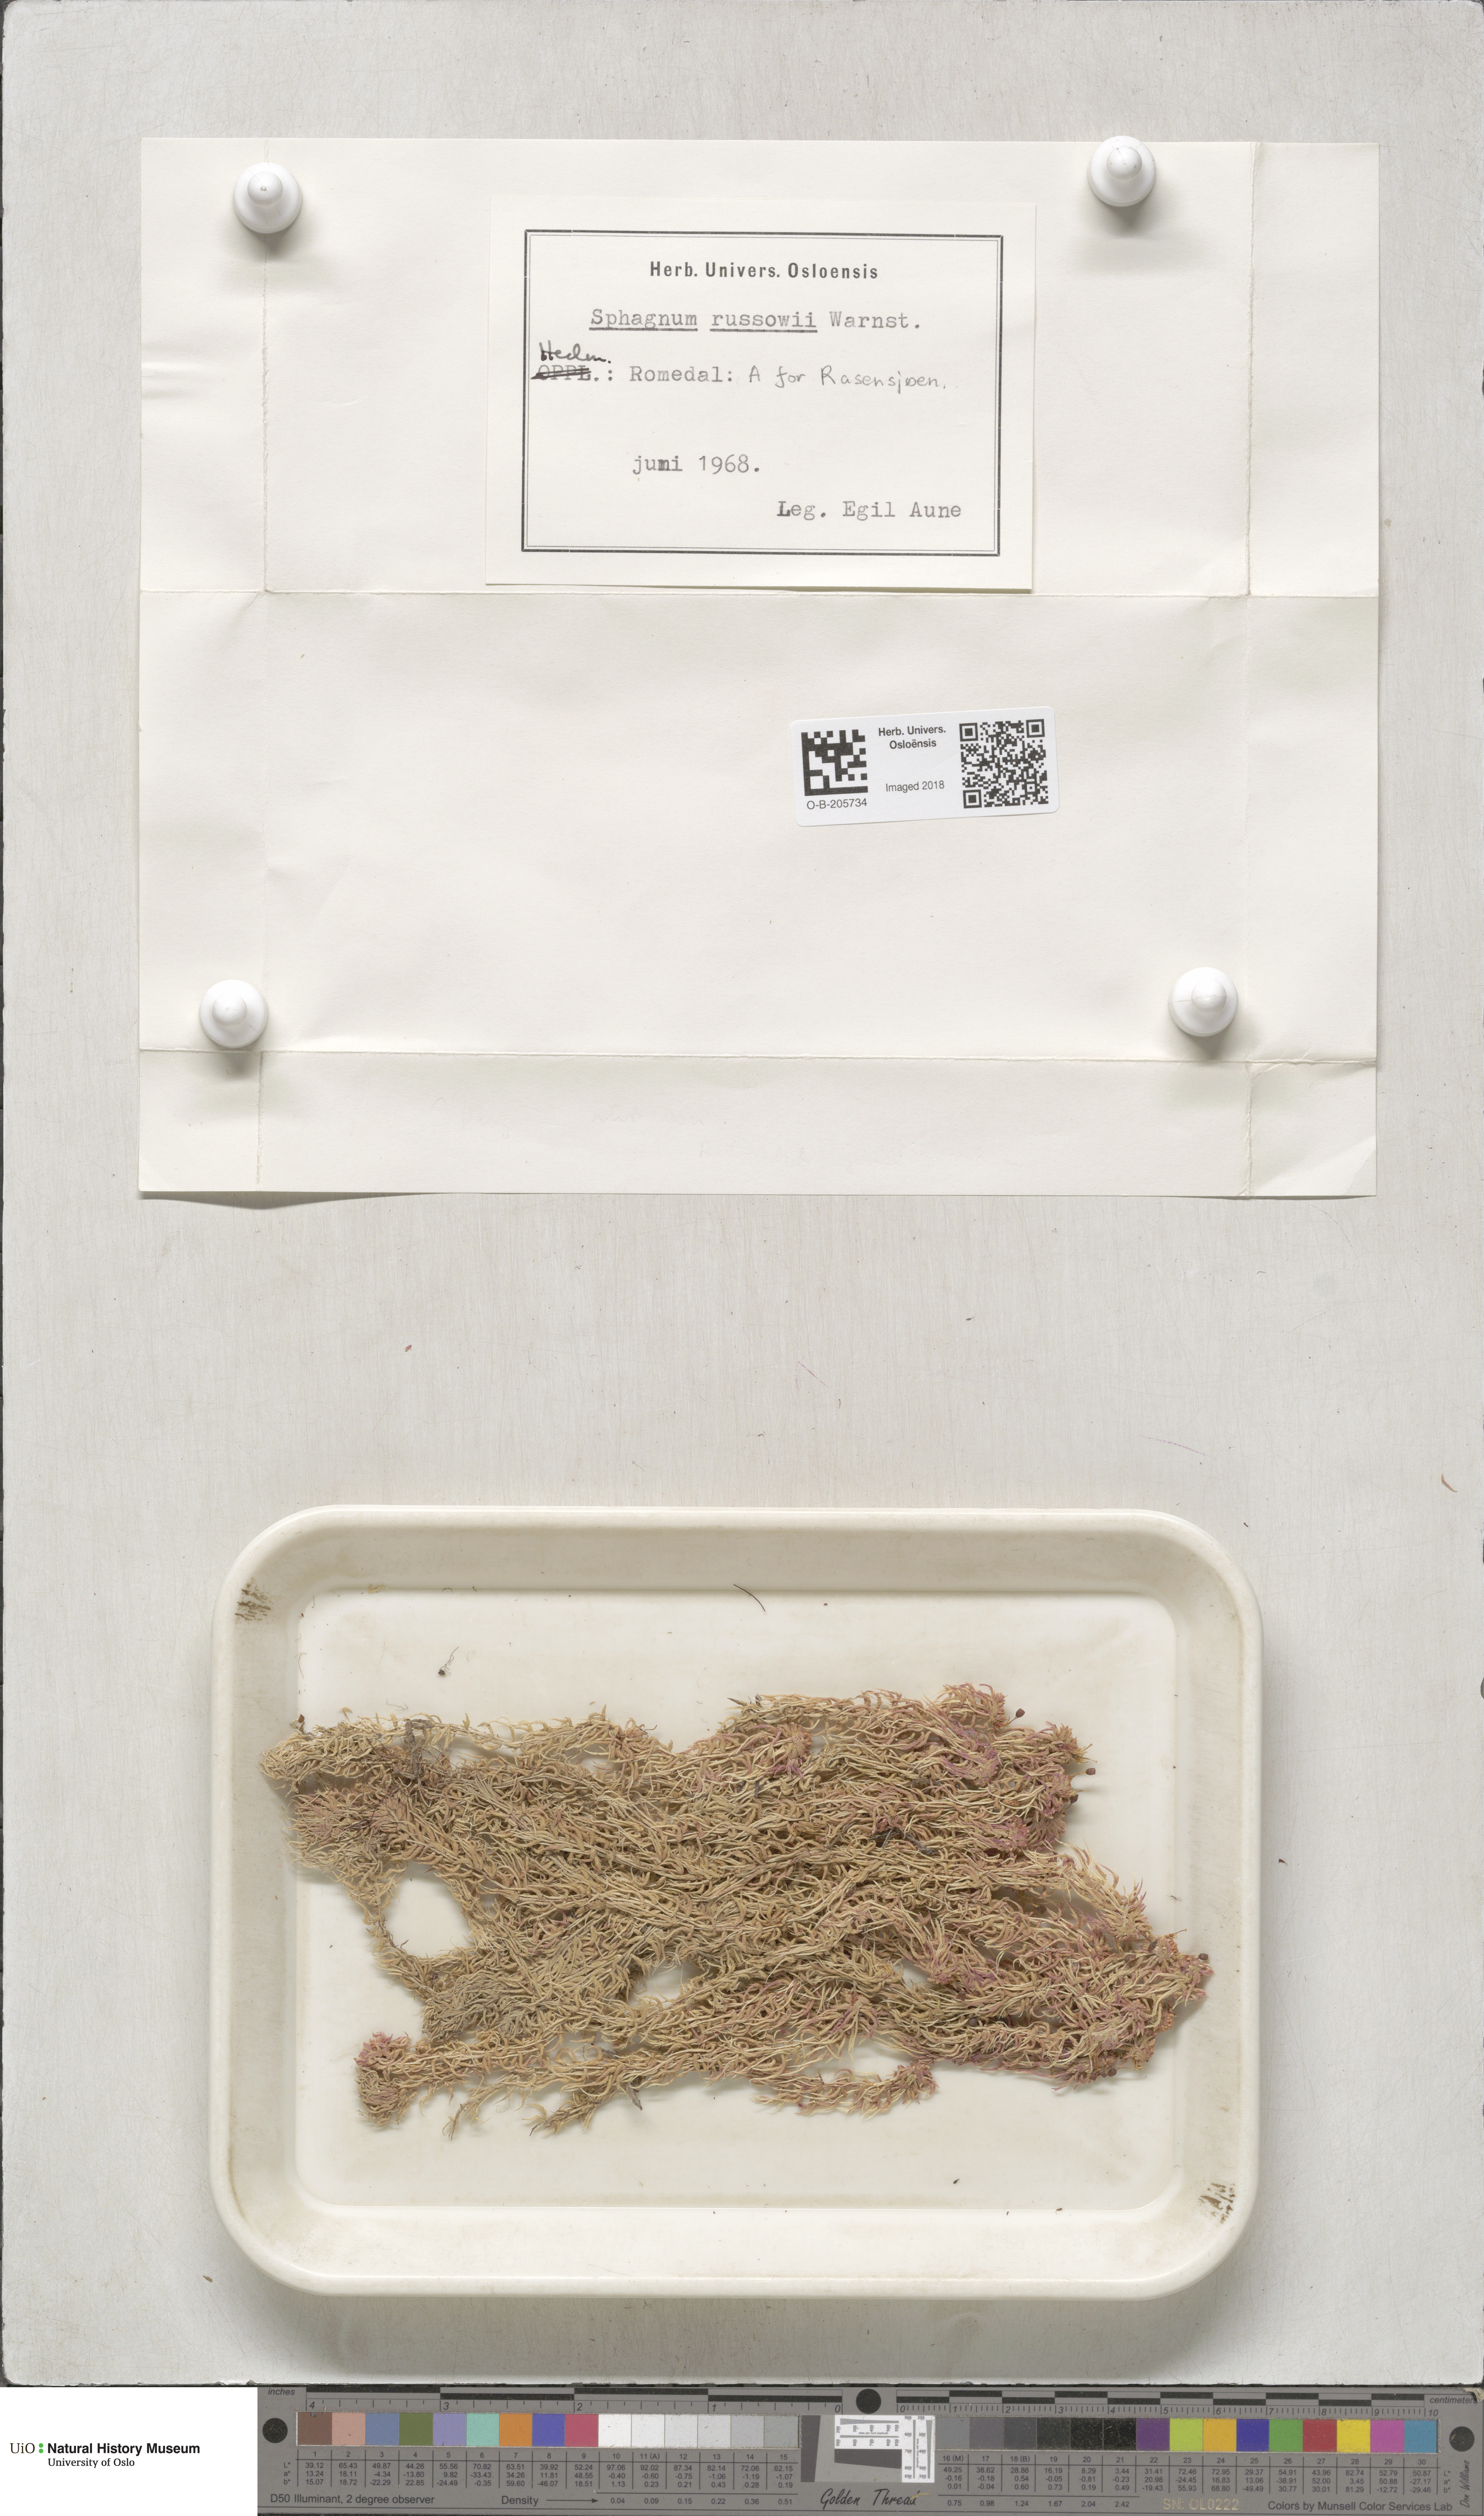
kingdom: Plantae
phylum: Bryophyta
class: Sphagnopsida
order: Sphagnales
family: Sphagnaceae
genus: Sphagnum
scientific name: Sphagnum russowii
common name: Russow's peat moss
